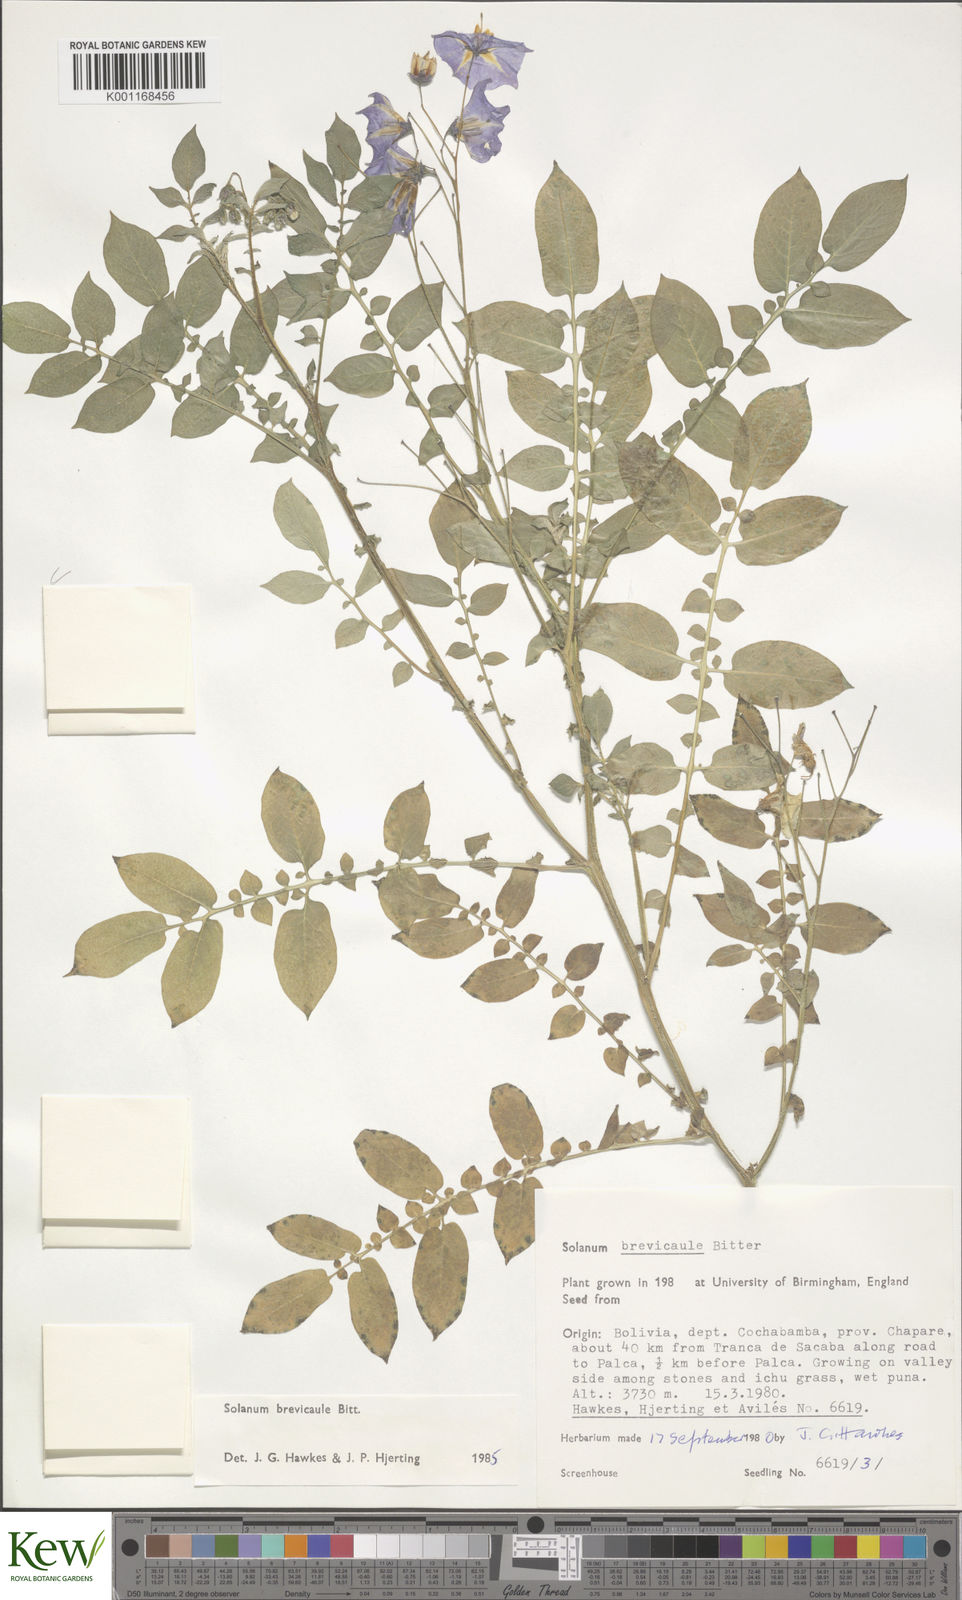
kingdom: Plantae
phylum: Tracheophyta
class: Magnoliopsida
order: Solanales
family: Solanaceae
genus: Solanum
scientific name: Solanum brevicaule
